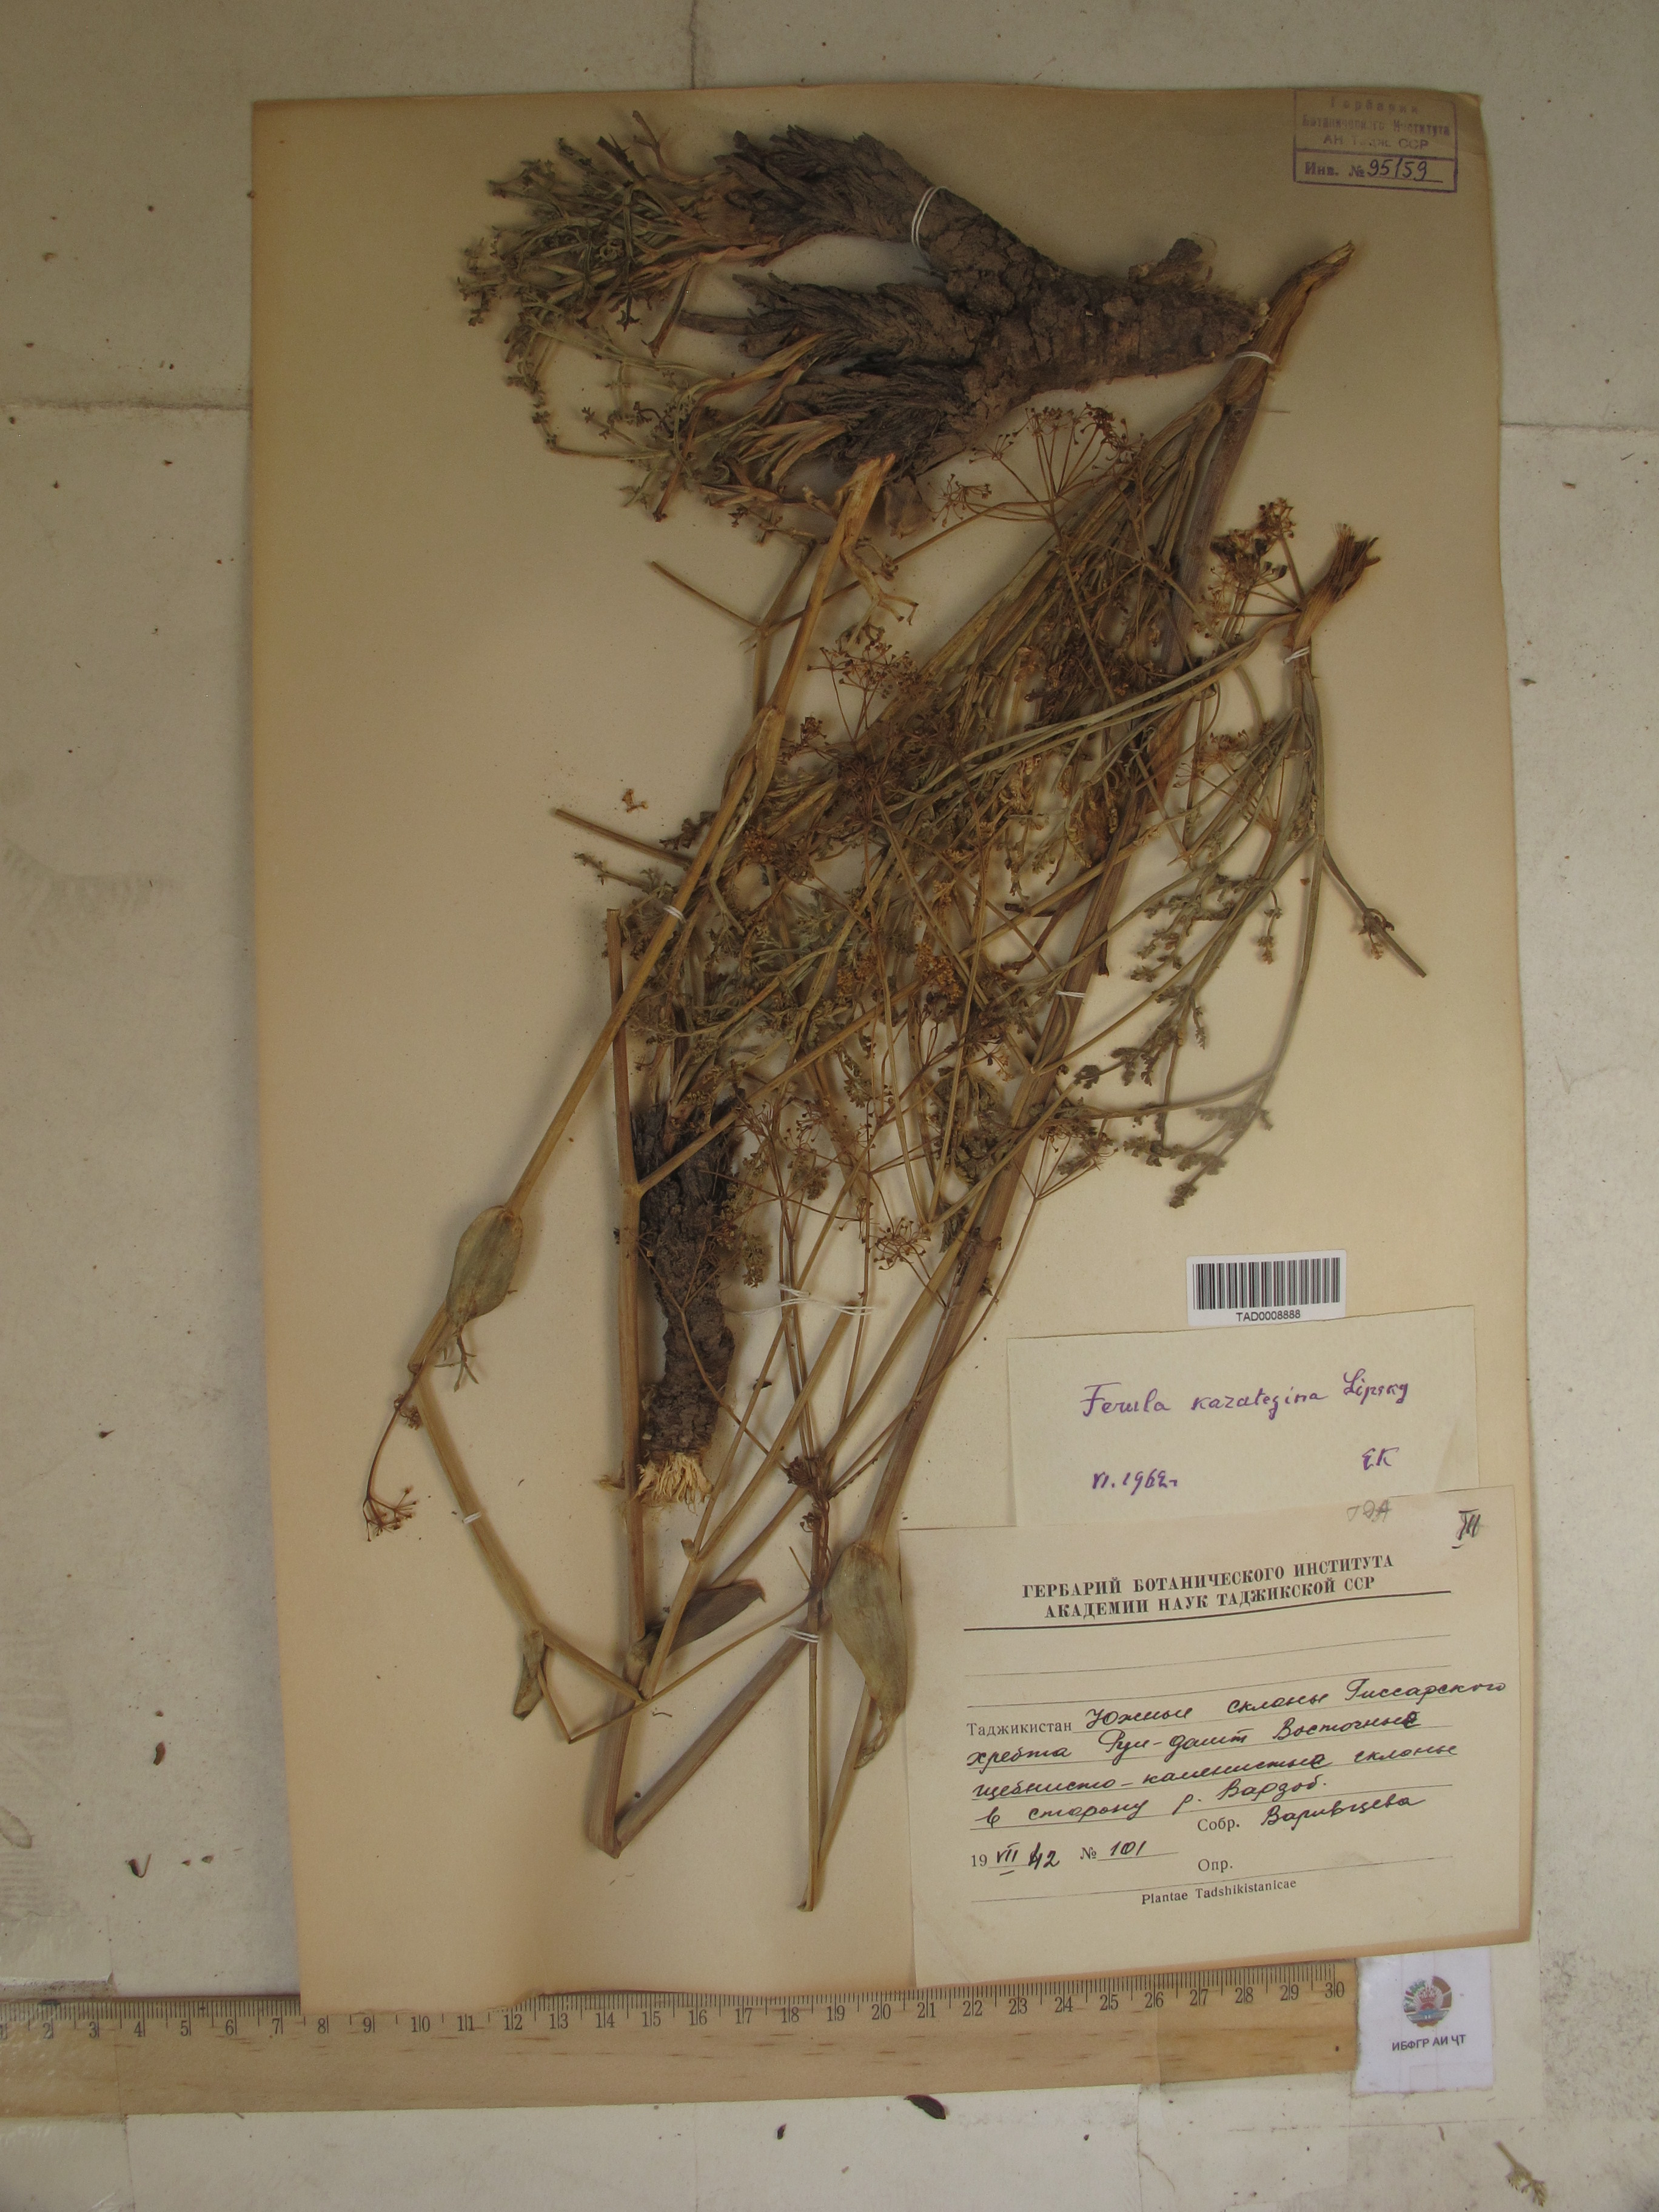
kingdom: Plantae
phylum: Tracheophyta
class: Magnoliopsida
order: Apiales
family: Apiaceae
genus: Ferula
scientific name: Ferula karategina
